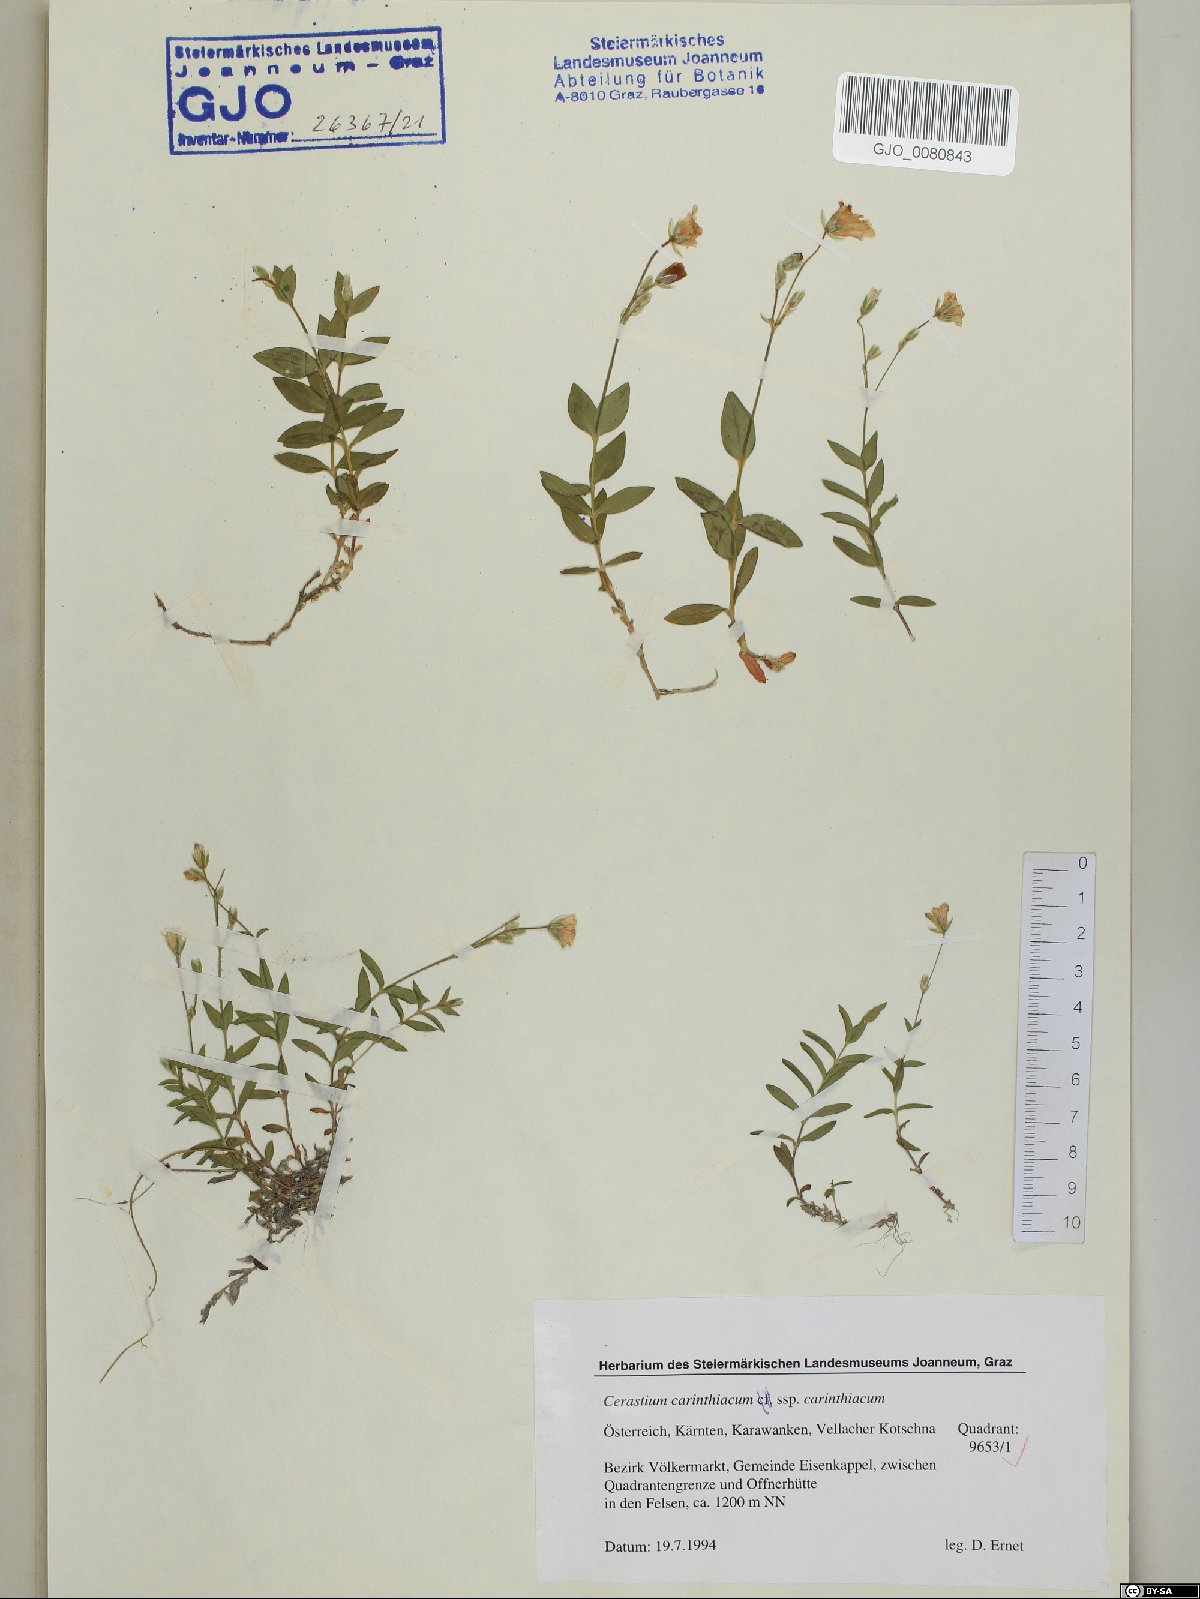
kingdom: Plantae
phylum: Tracheophyta
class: Magnoliopsida
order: Caryophyllales
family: Caryophyllaceae
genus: Cerastium
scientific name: Cerastium carinthiacum
